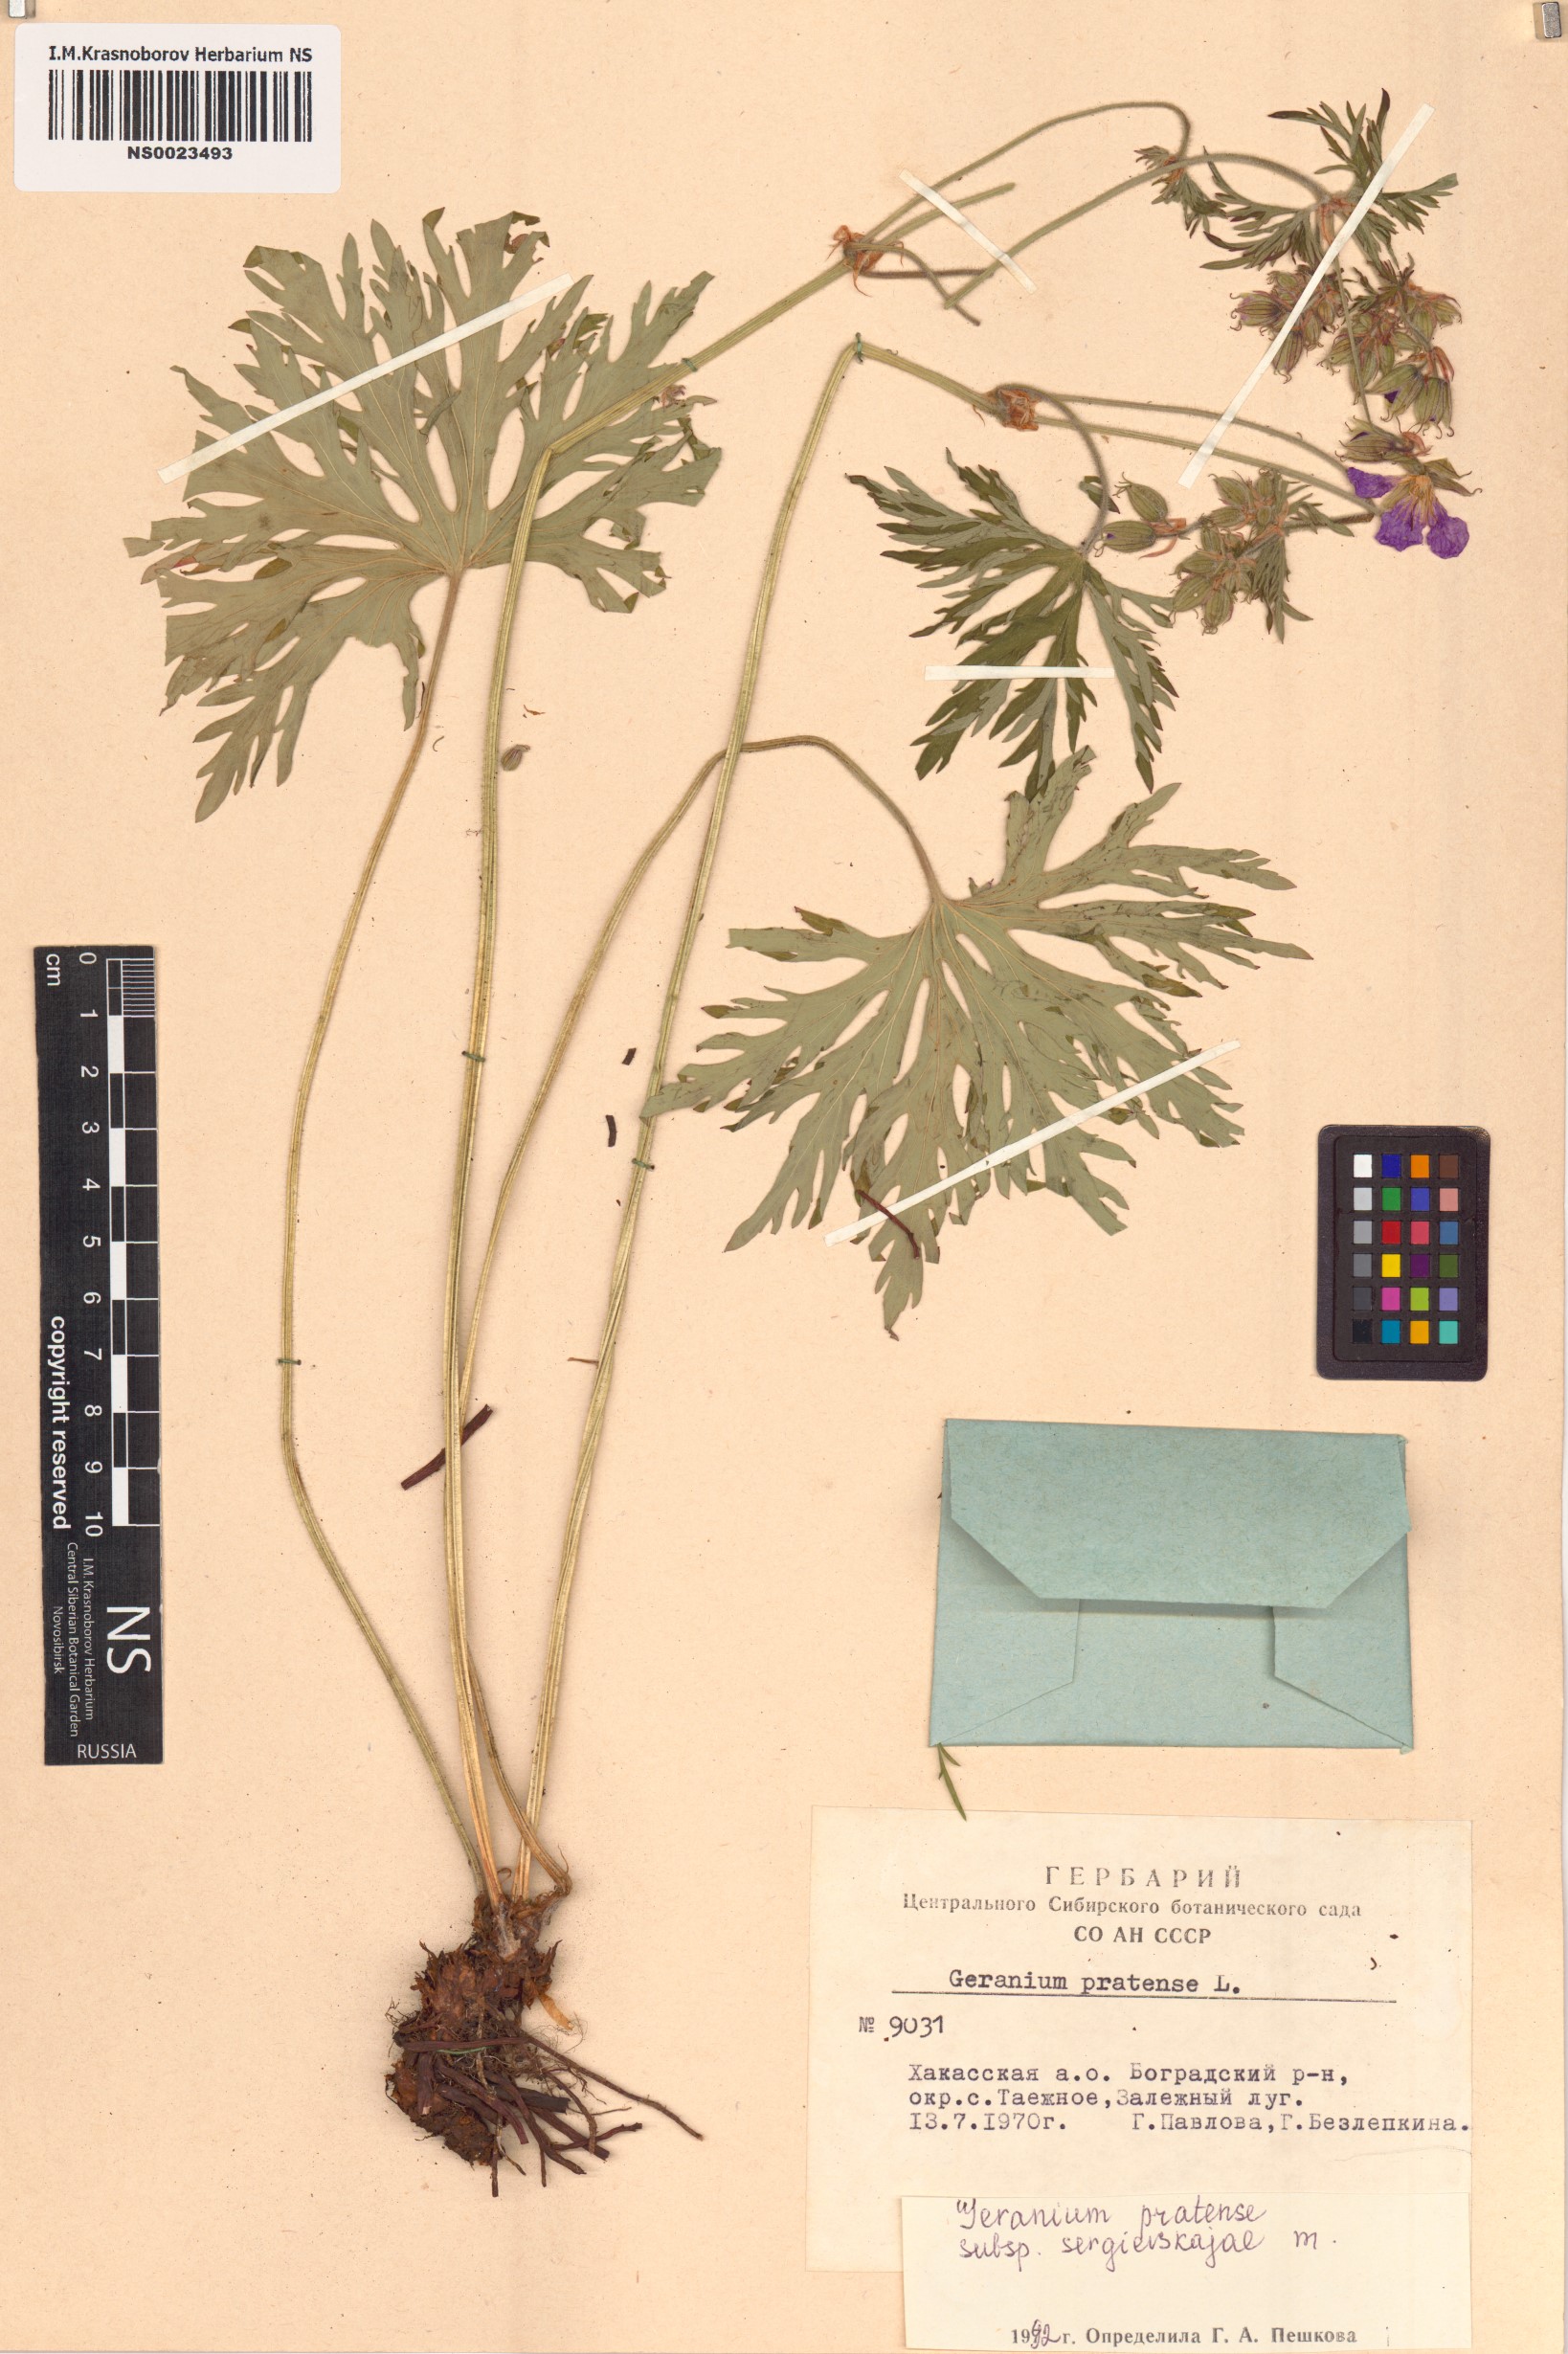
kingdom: Plantae
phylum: Tracheophyta
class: Magnoliopsida
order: Geraniales
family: Geraniaceae
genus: Geranium
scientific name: Geranium pratense
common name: Meadow crane's-bill
